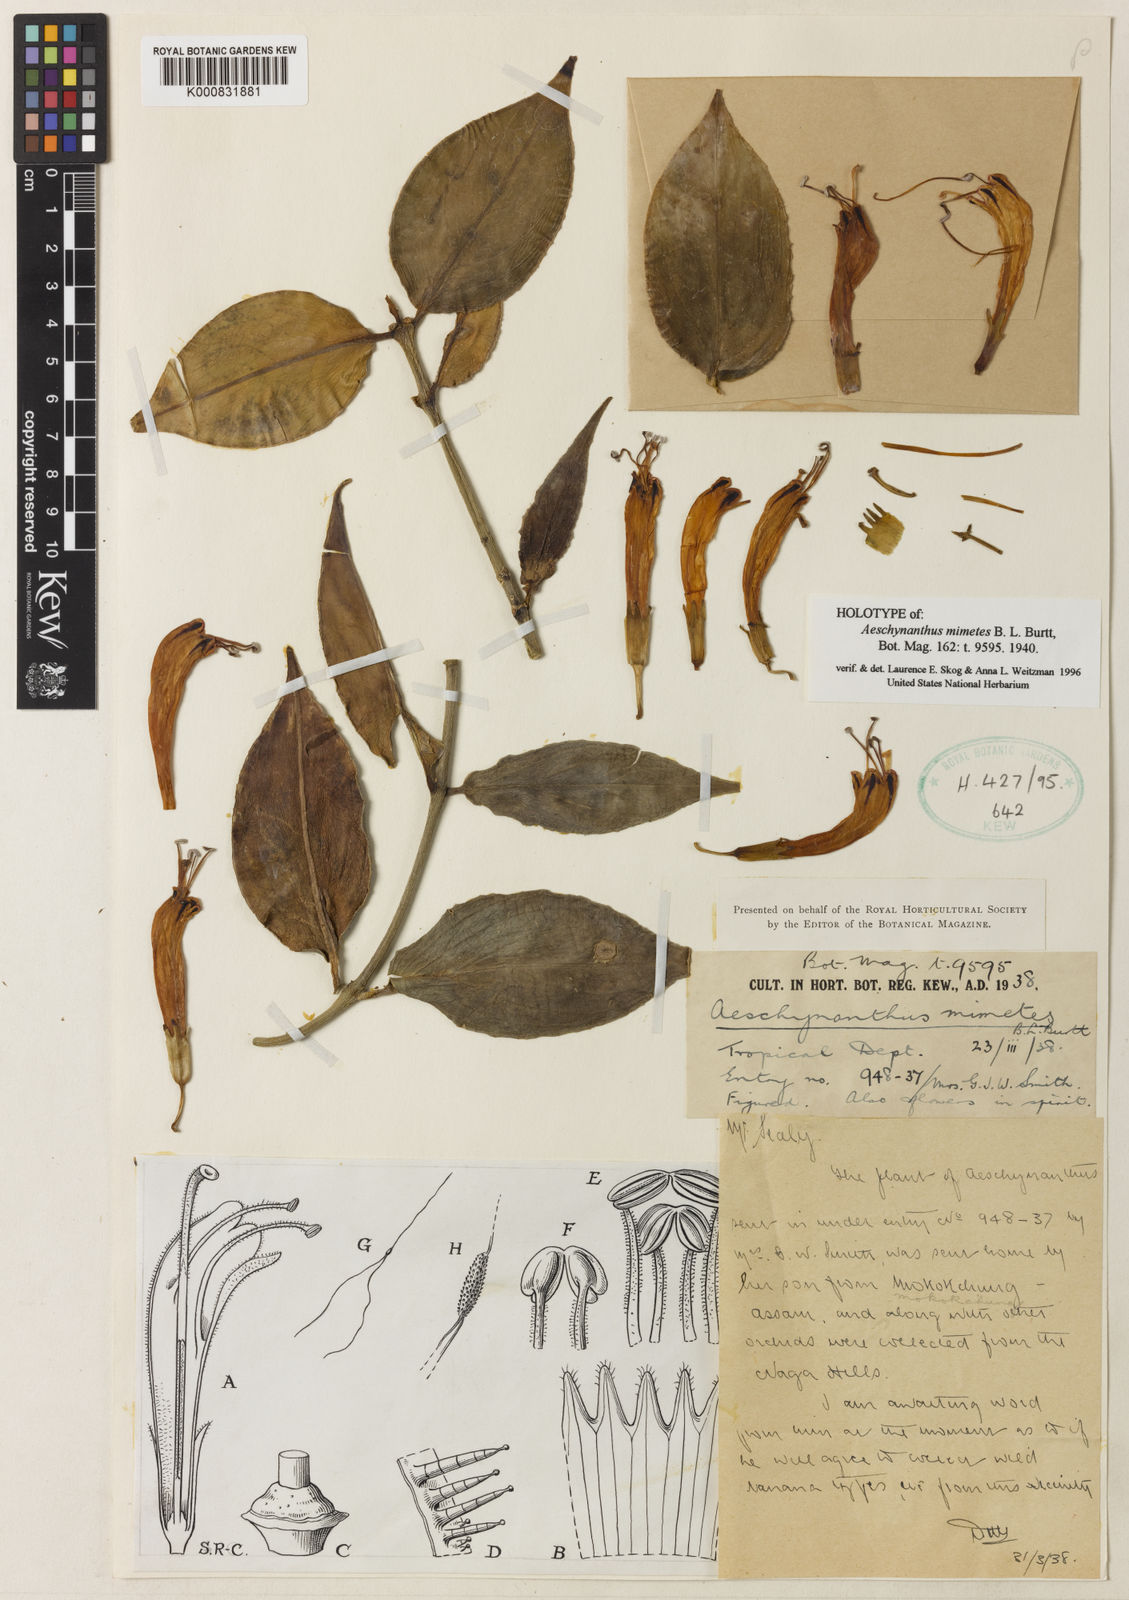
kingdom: Plantae
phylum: Tracheophyta
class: Magnoliopsida
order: Lamiales
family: Gesneriaceae
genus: Aeschynanthus
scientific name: Aeschynanthus parasiticus
